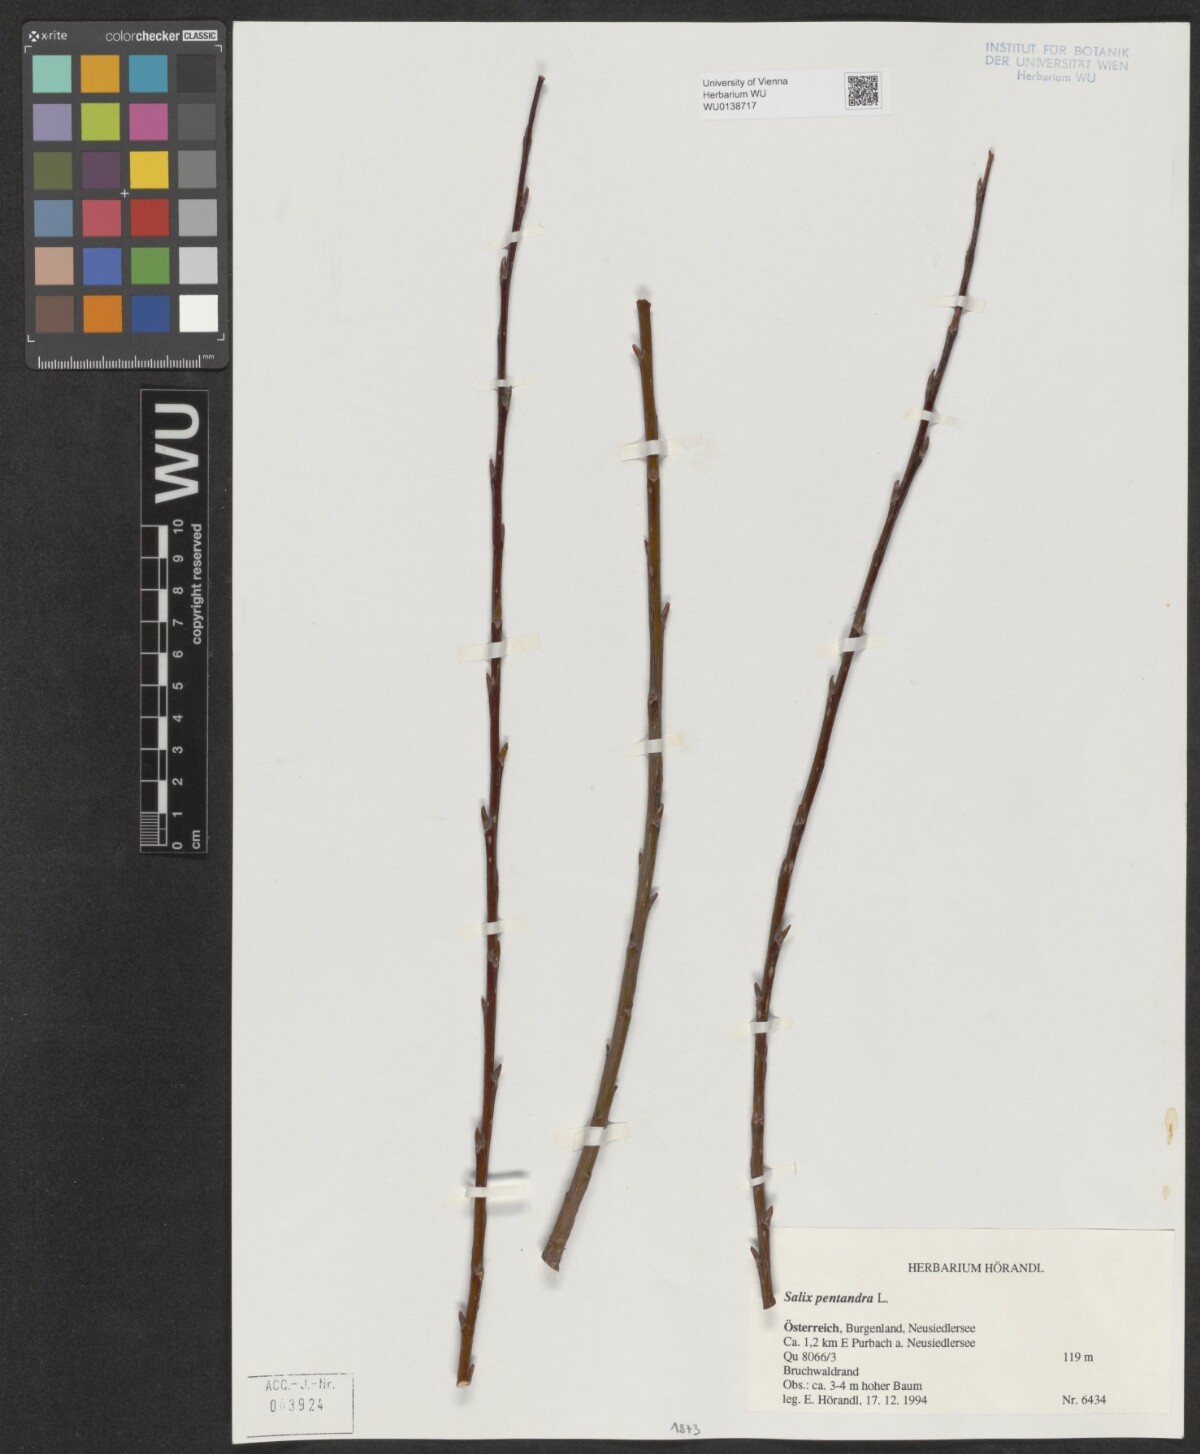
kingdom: Plantae
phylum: Tracheophyta
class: Magnoliopsida
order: Malpighiales
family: Salicaceae
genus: Salix
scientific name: Salix pentandra
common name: Bay willow
